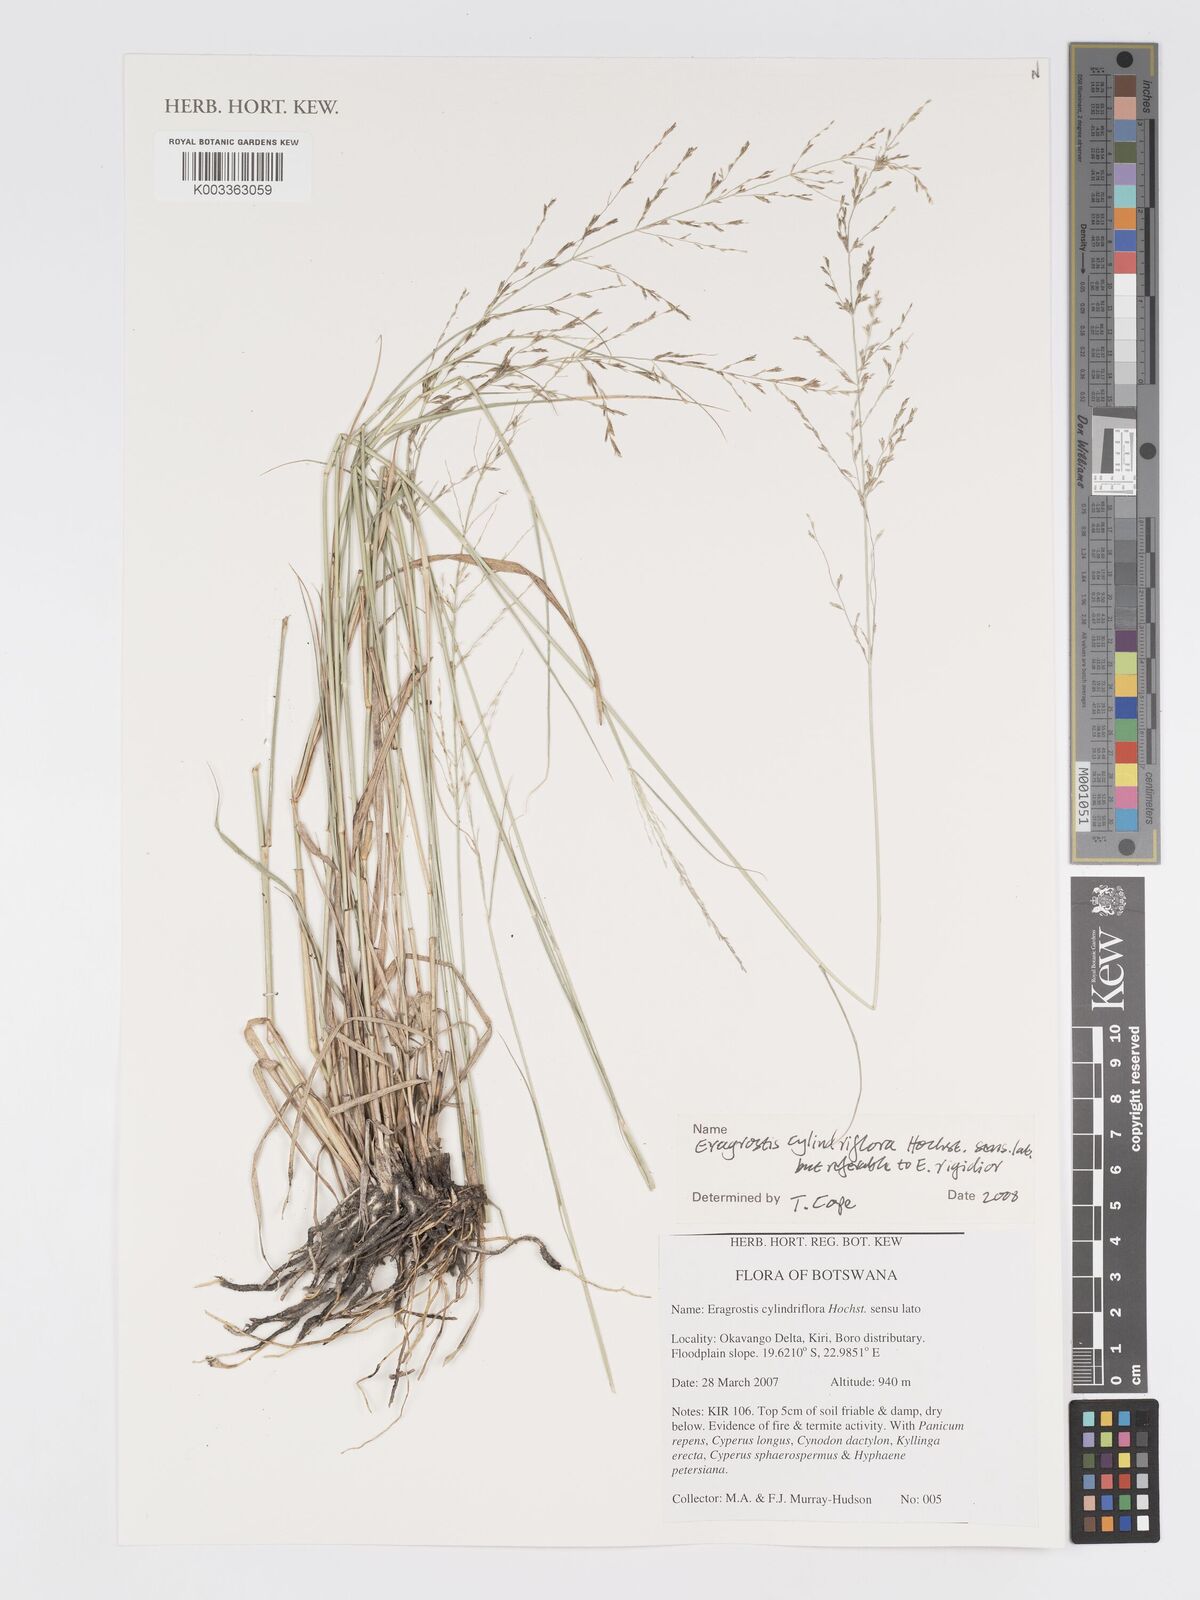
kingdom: Plantae
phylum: Tracheophyta
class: Liliopsida
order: Poales
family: Poaceae
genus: Eragrostis
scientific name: Eragrostis cylindriflora
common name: Cylinderflower lovegrass
